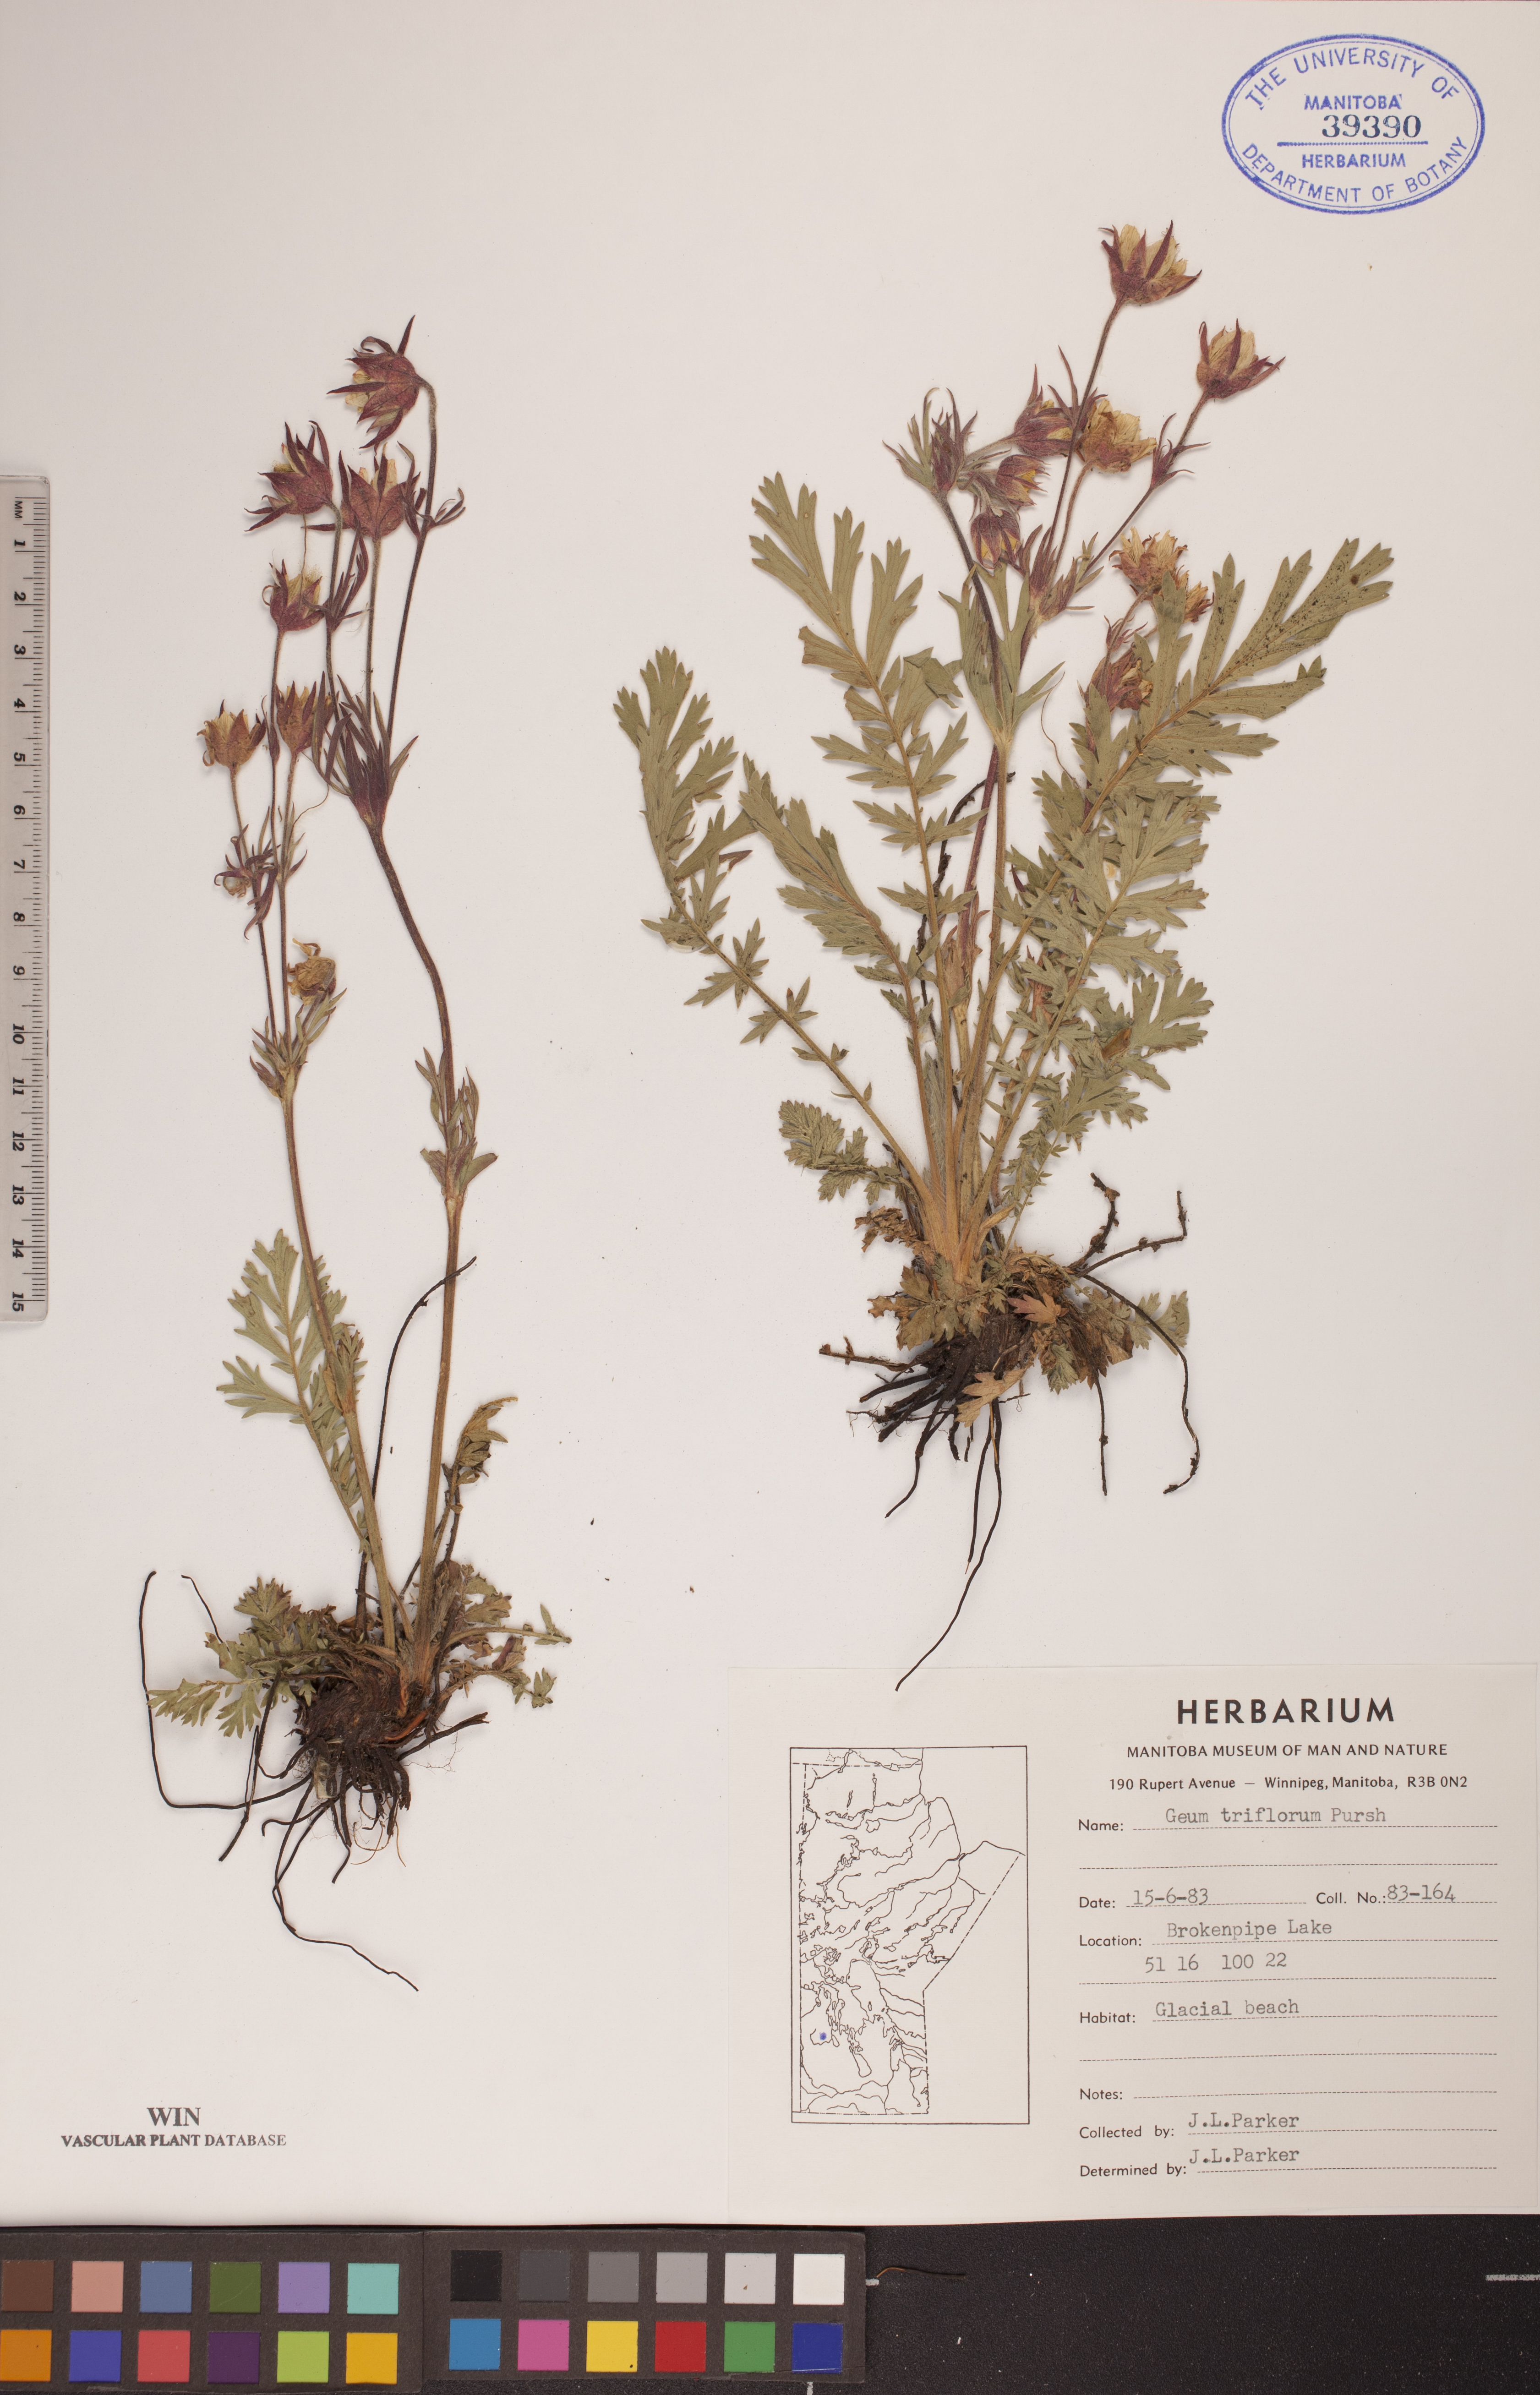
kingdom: Plantae
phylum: Tracheophyta
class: Magnoliopsida
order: Rosales
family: Rosaceae
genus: Geum
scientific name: Geum triflorum
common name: Old man's whiskers
